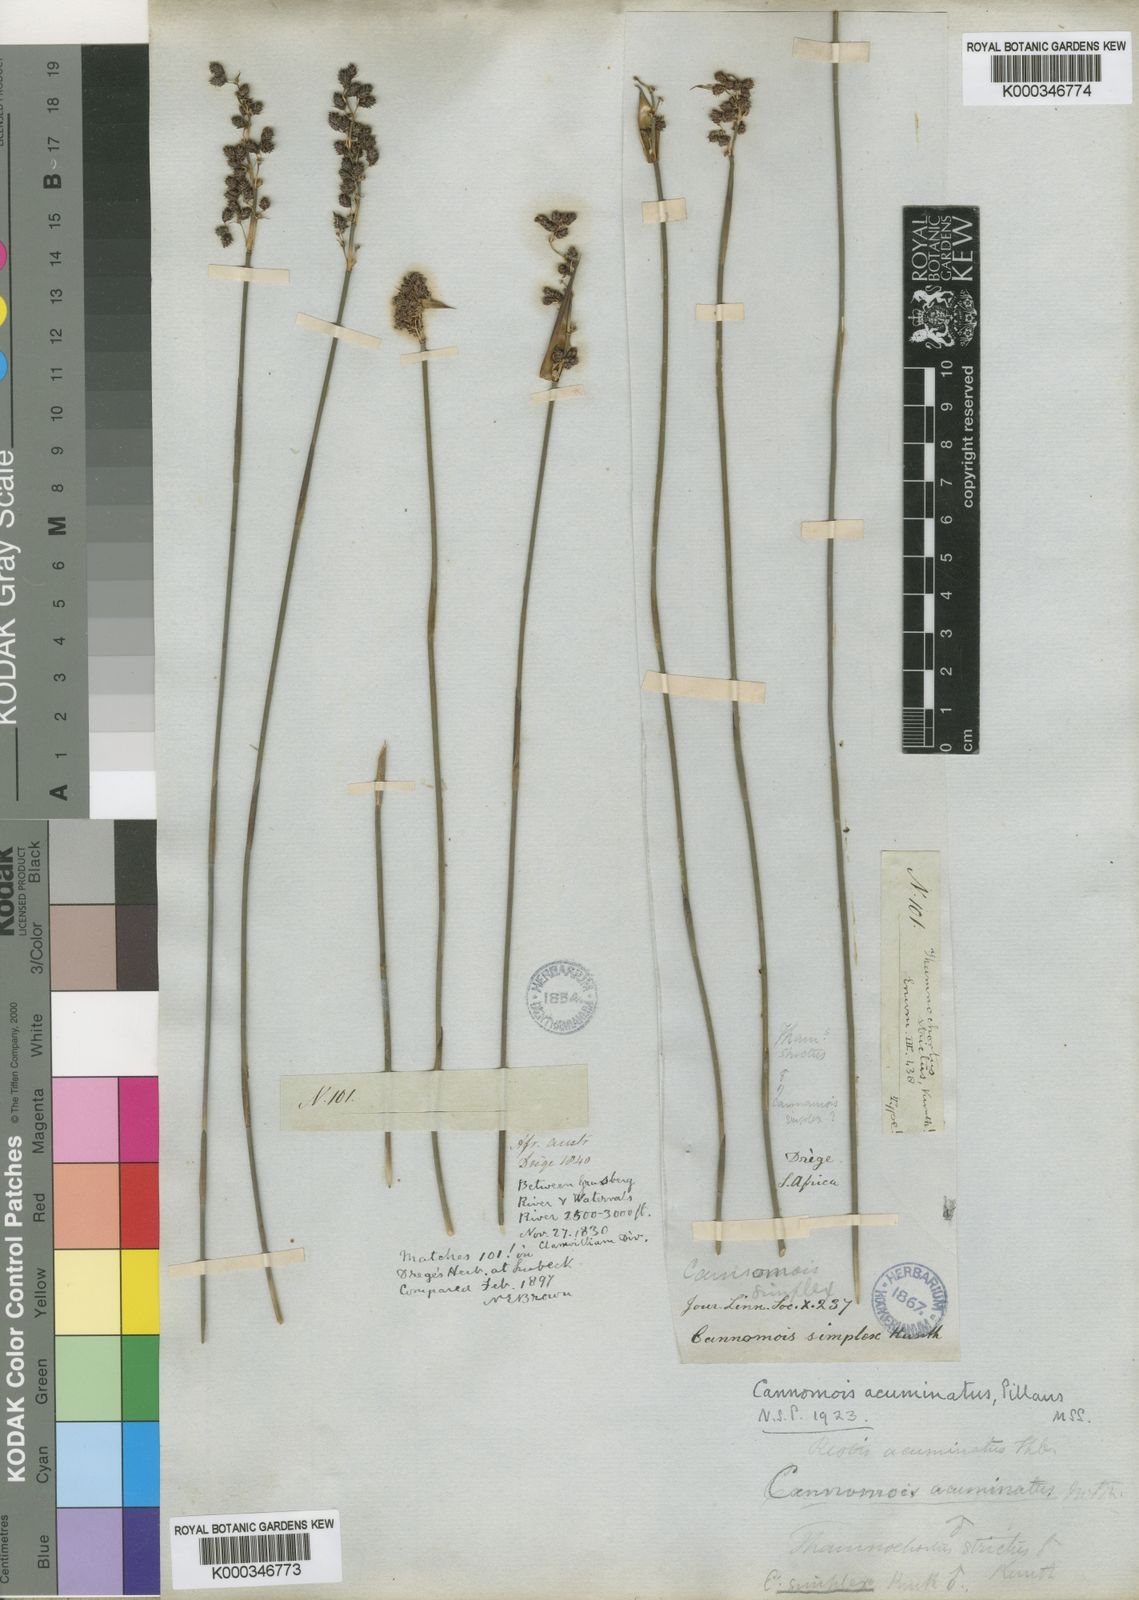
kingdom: Plantae
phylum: Tracheophyta
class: Liliopsida
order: Poales
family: Restionaceae
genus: Cannomois
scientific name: Cannomois parviflora
